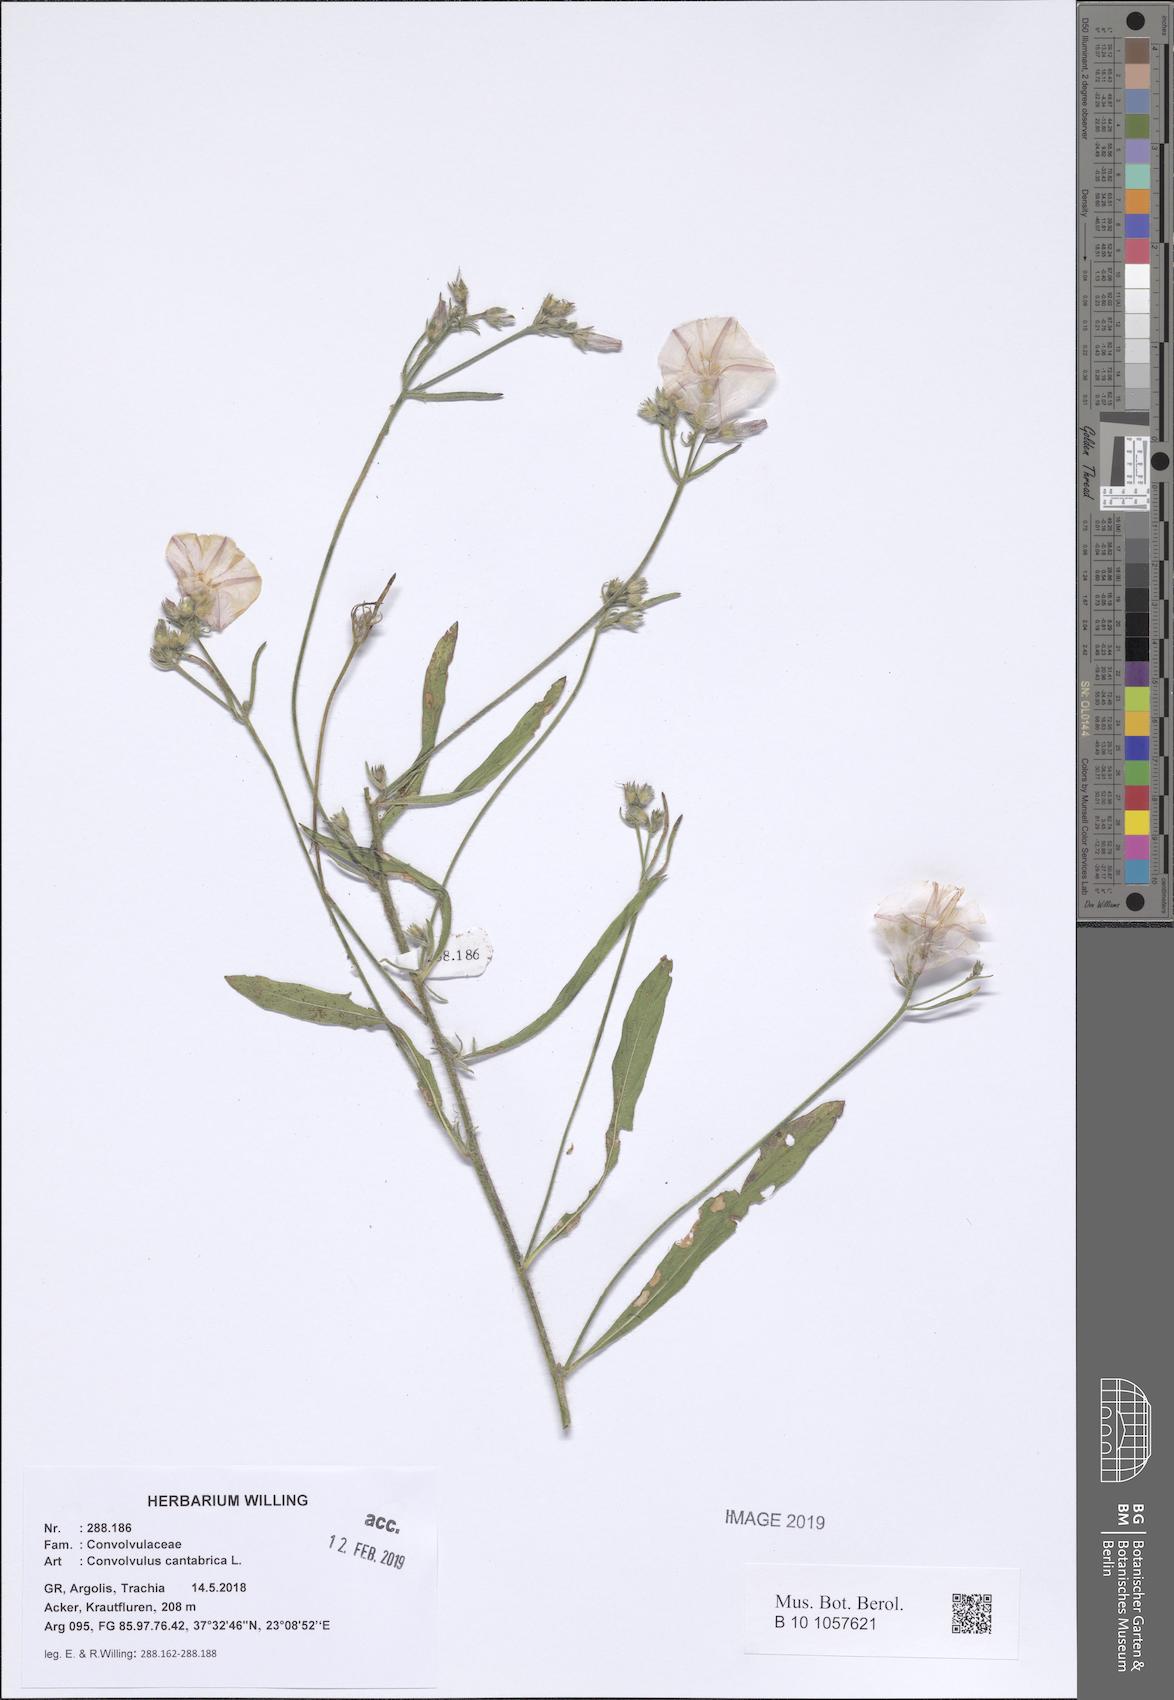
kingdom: Plantae
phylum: Tracheophyta
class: Magnoliopsida
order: Solanales
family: Convolvulaceae
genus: Convolvulus
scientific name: Convolvulus cantabrica
